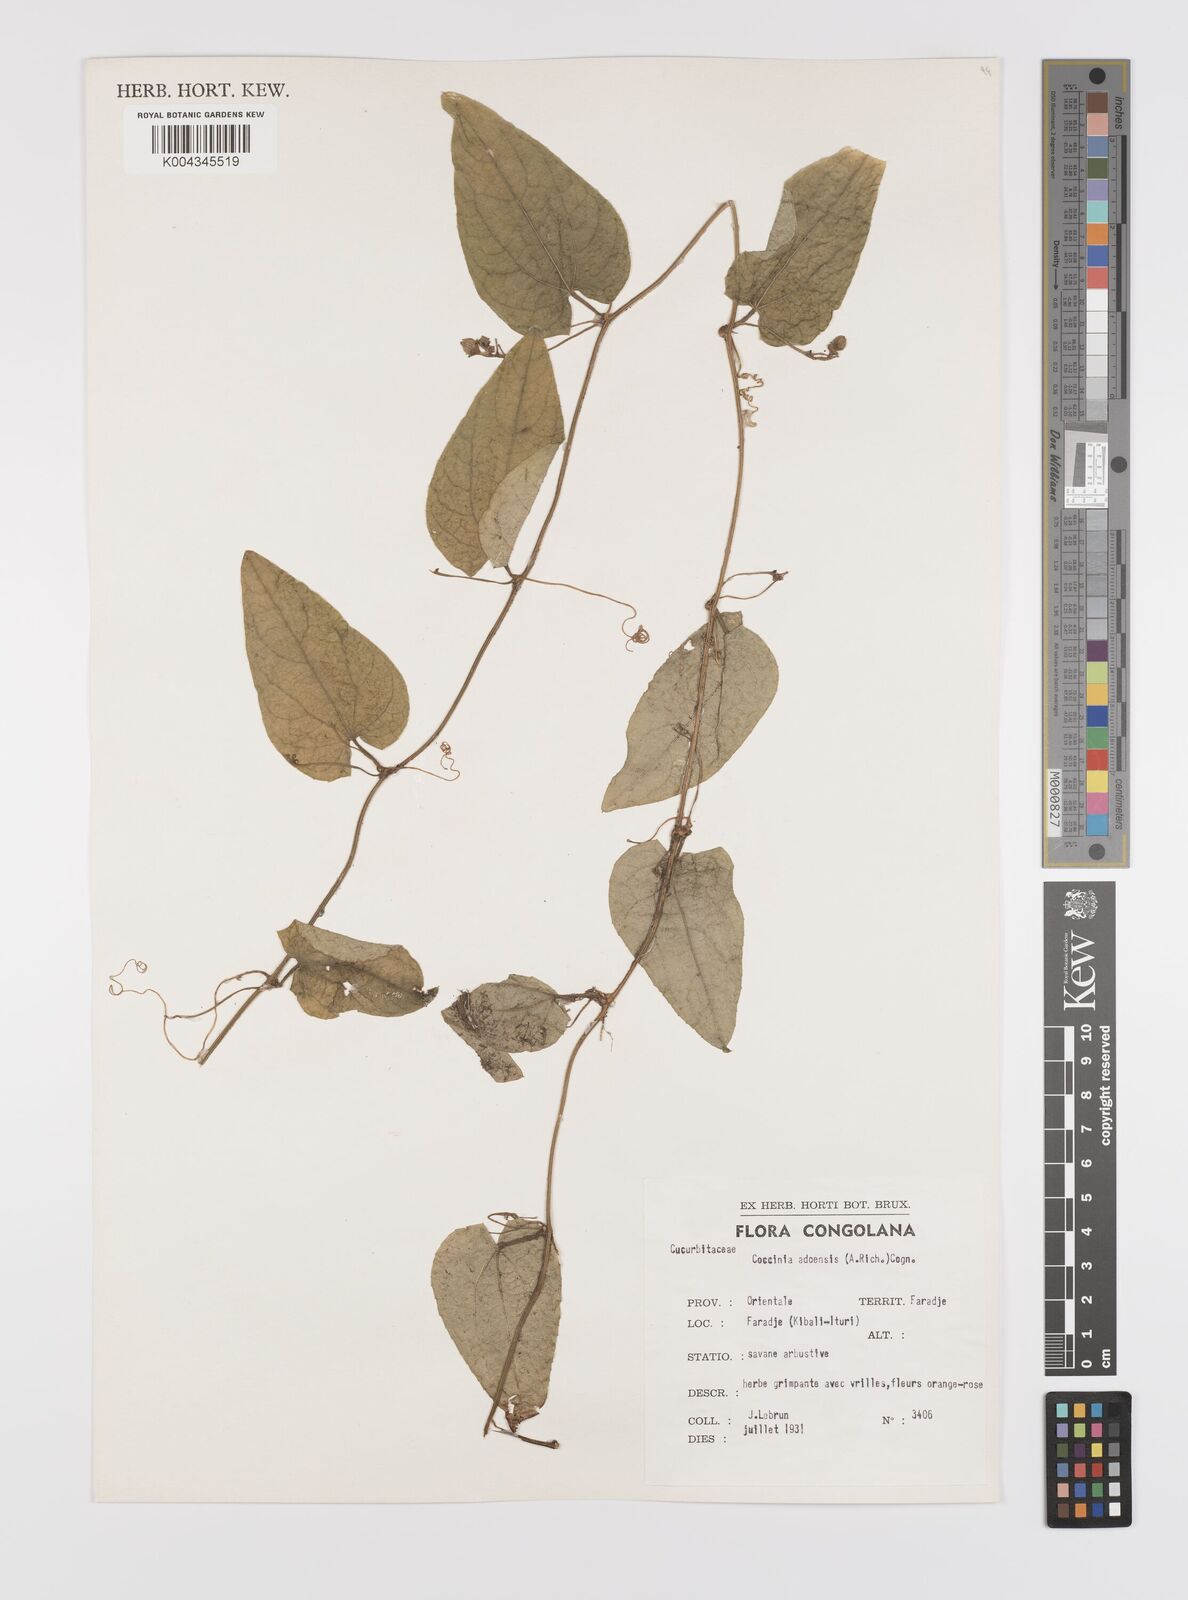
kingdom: Plantae
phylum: Tracheophyta
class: Magnoliopsida
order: Cucurbitales
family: Cucurbitaceae
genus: Coccinia
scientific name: Coccinia adoensis
